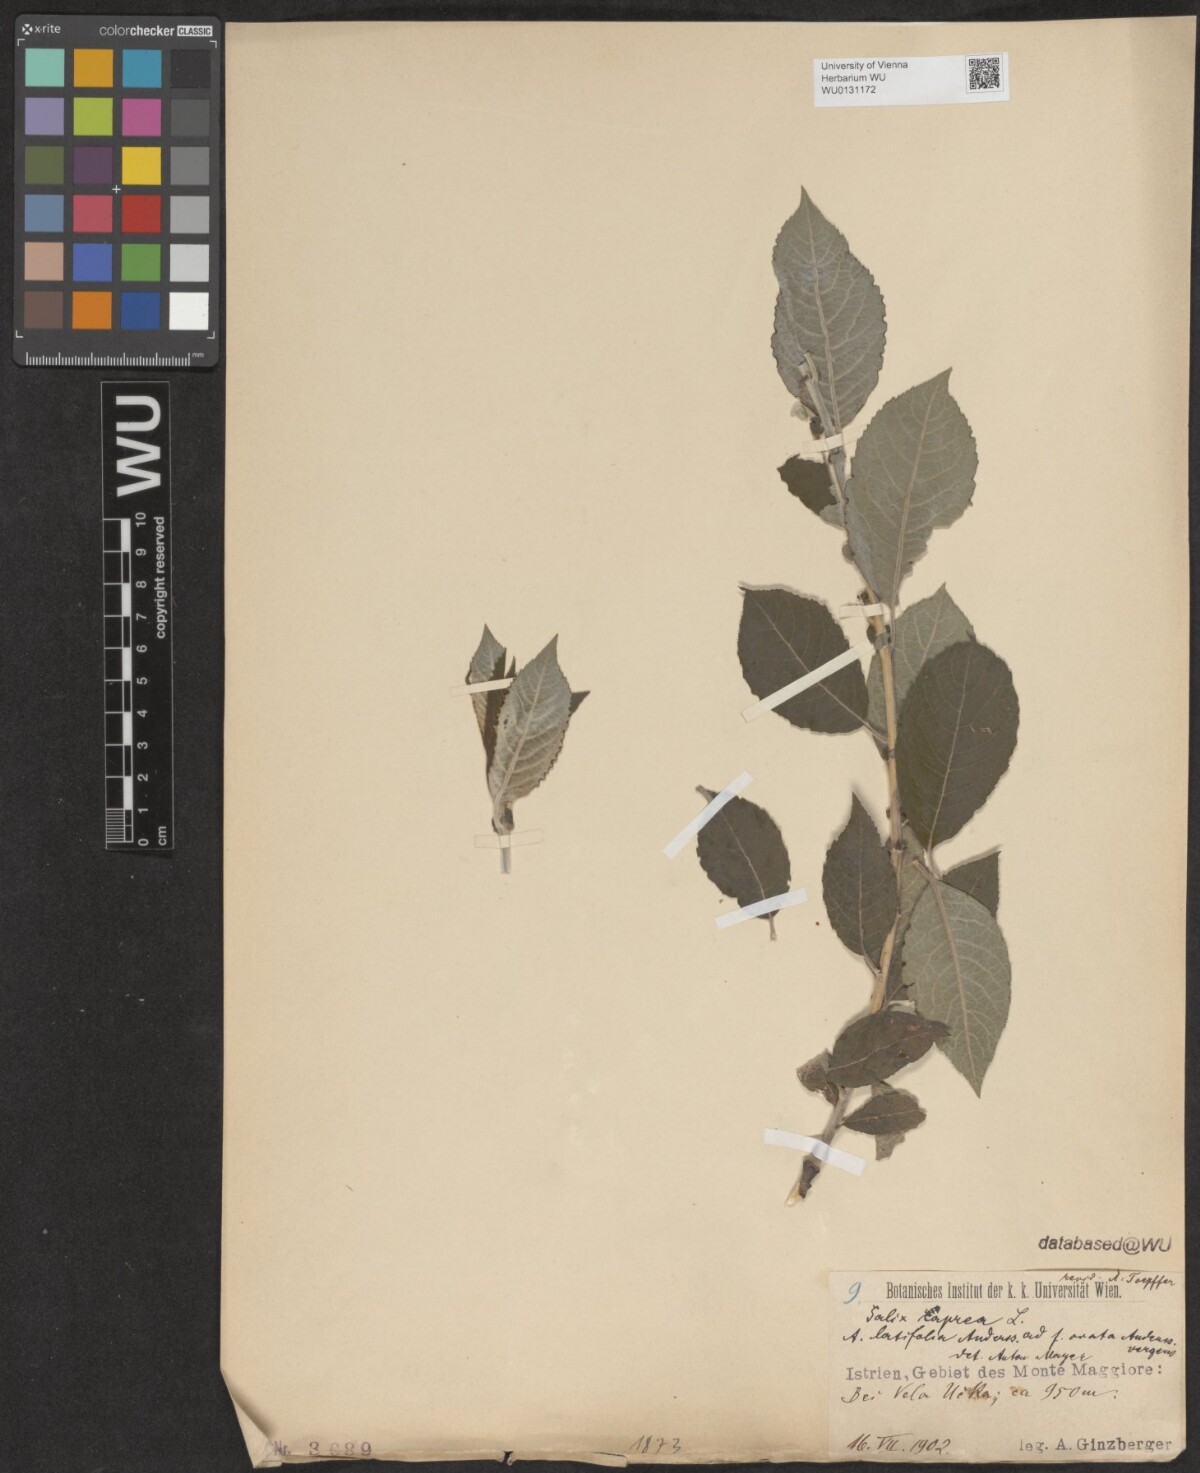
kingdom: Plantae
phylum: Tracheophyta
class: Magnoliopsida
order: Malpighiales
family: Salicaceae
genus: Salix
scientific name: Salix caprea
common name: Goat willow
